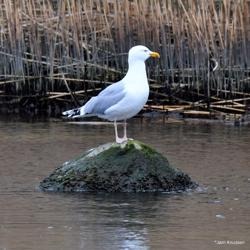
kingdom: Animalia
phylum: Chordata
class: Aves
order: Charadriiformes
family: Laridae
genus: Larus
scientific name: Larus argentatus
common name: Sølvmåge
